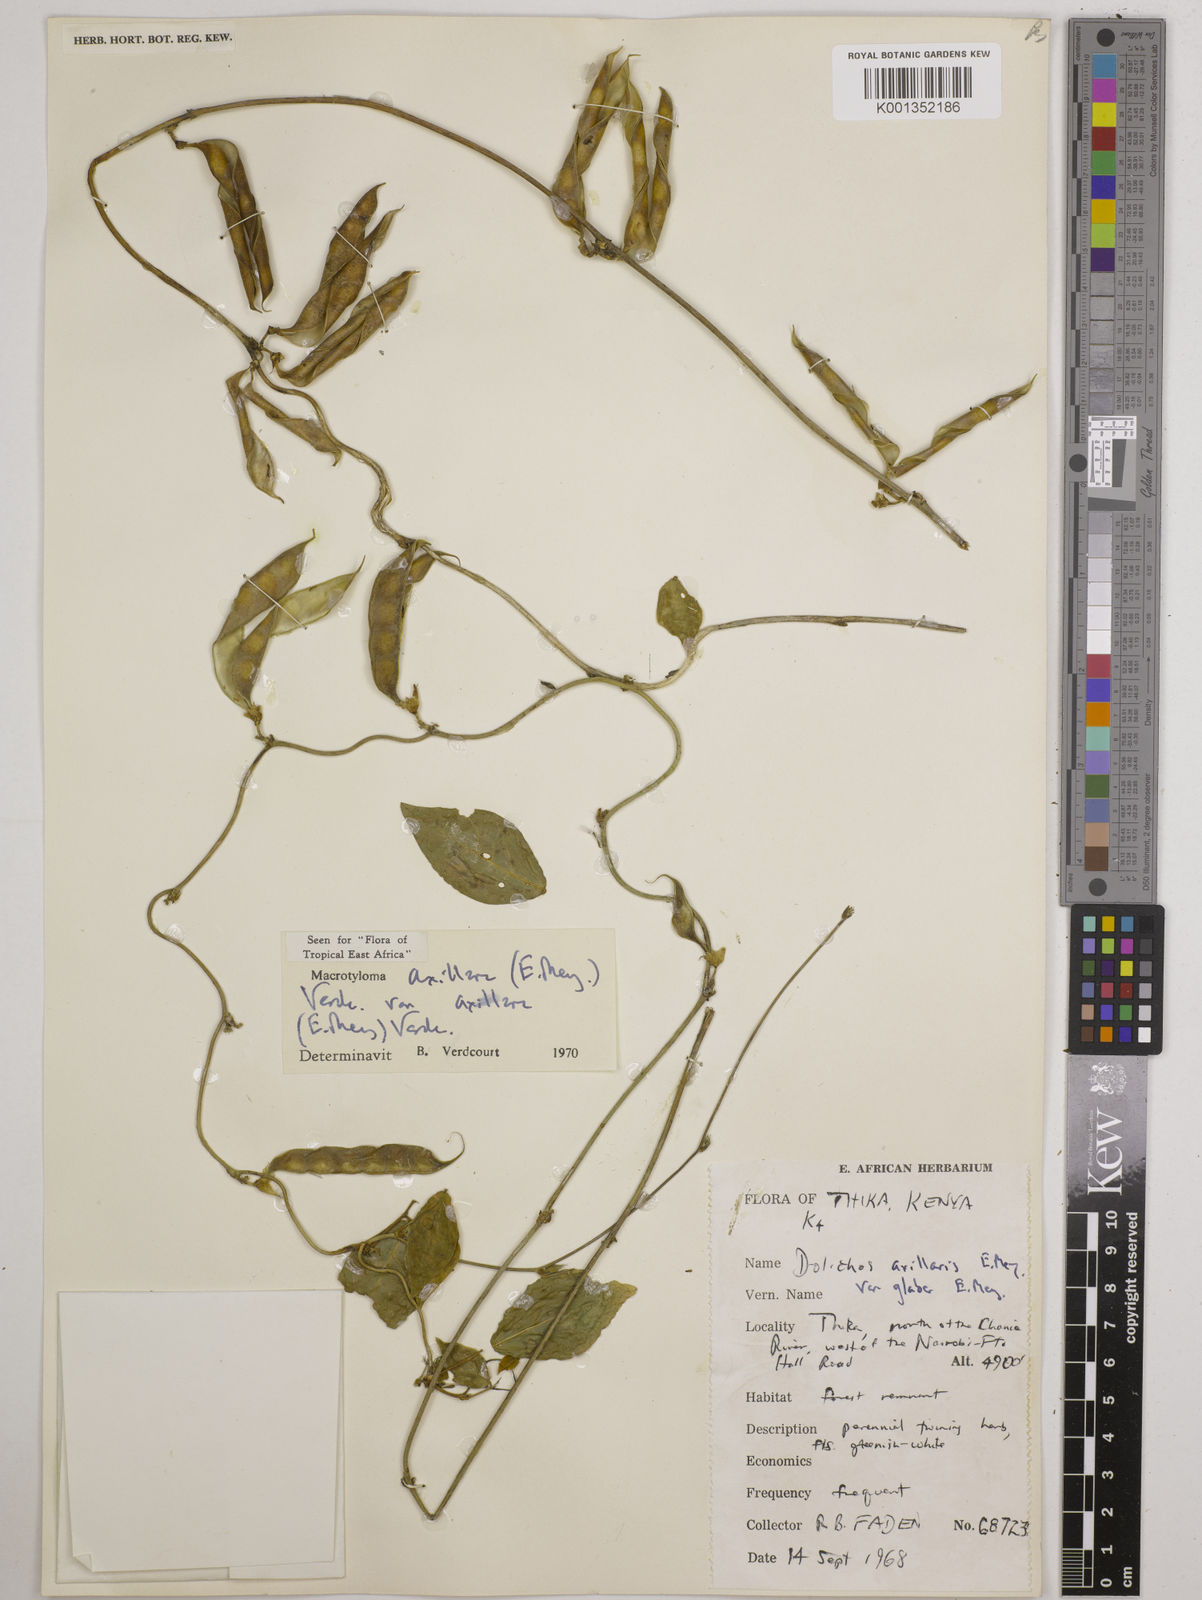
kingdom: Plantae
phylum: Tracheophyta
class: Magnoliopsida
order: Fabales
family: Fabaceae
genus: Macrotyloma
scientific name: Macrotyloma
